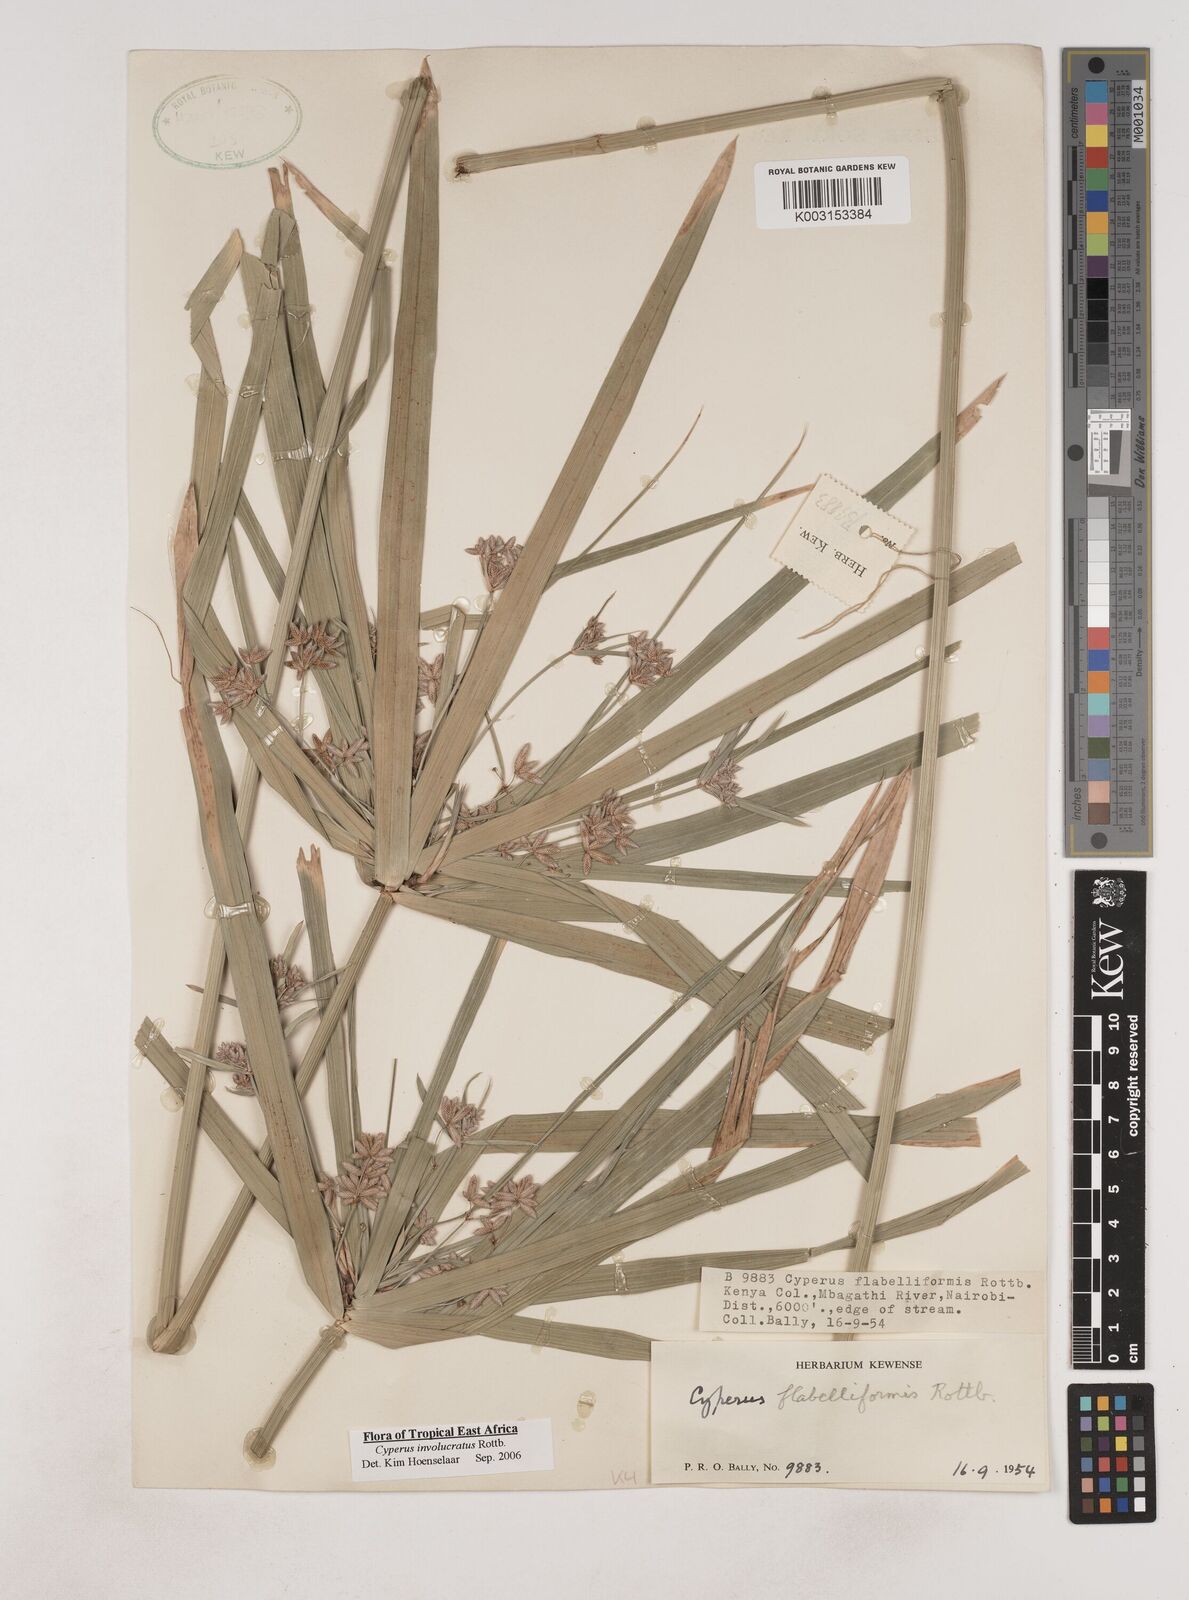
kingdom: Plantae
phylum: Tracheophyta
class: Liliopsida
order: Poales
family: Cyperaceae
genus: Cyperus
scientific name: Cyperus alternifolius
